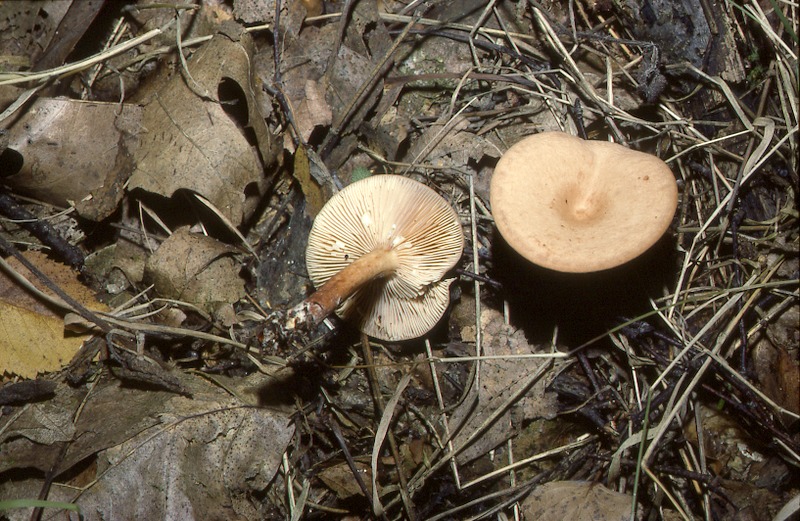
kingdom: Fungi
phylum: Basidiomycota
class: Agaricomycetes
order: Russulales
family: Russulaceae
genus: Lactarius
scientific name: Lactarius decipiens
